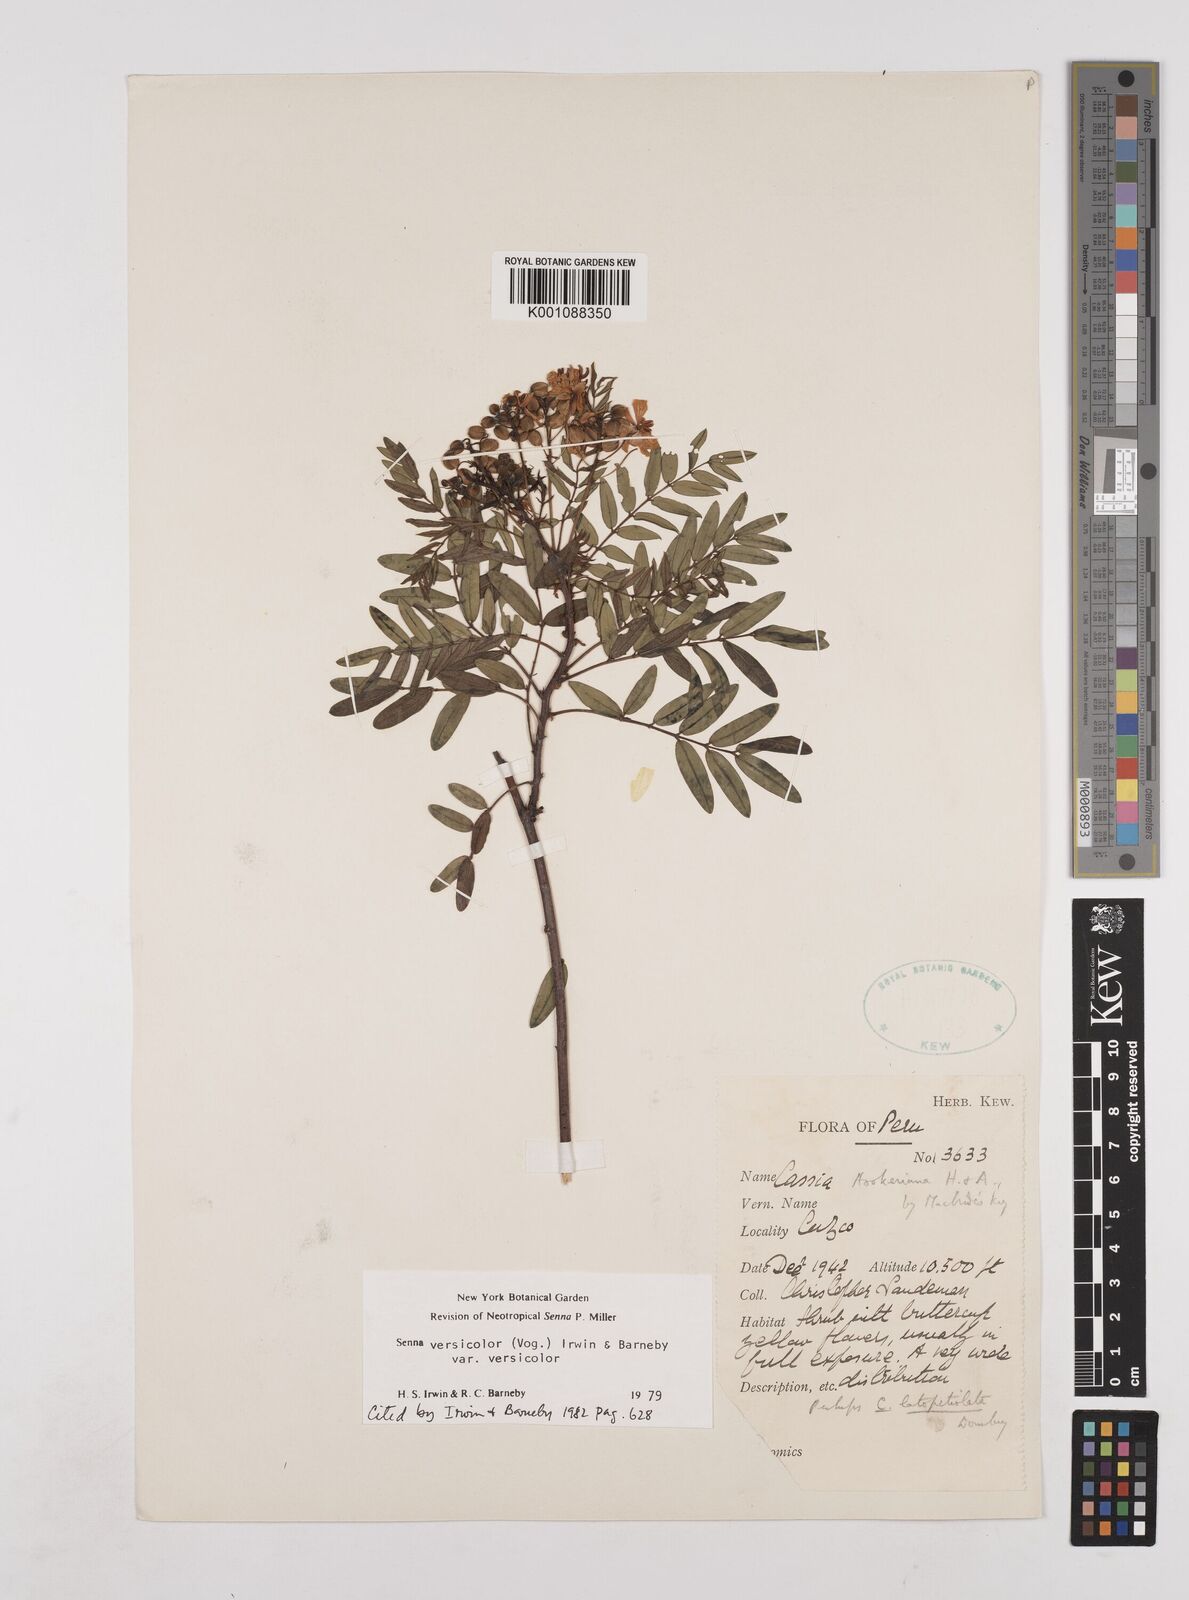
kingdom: Plantae
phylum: Tracheophyta
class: Magnoliopsida
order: Fabales
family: Fabaceae
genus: Senna
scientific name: Senna versicolor
